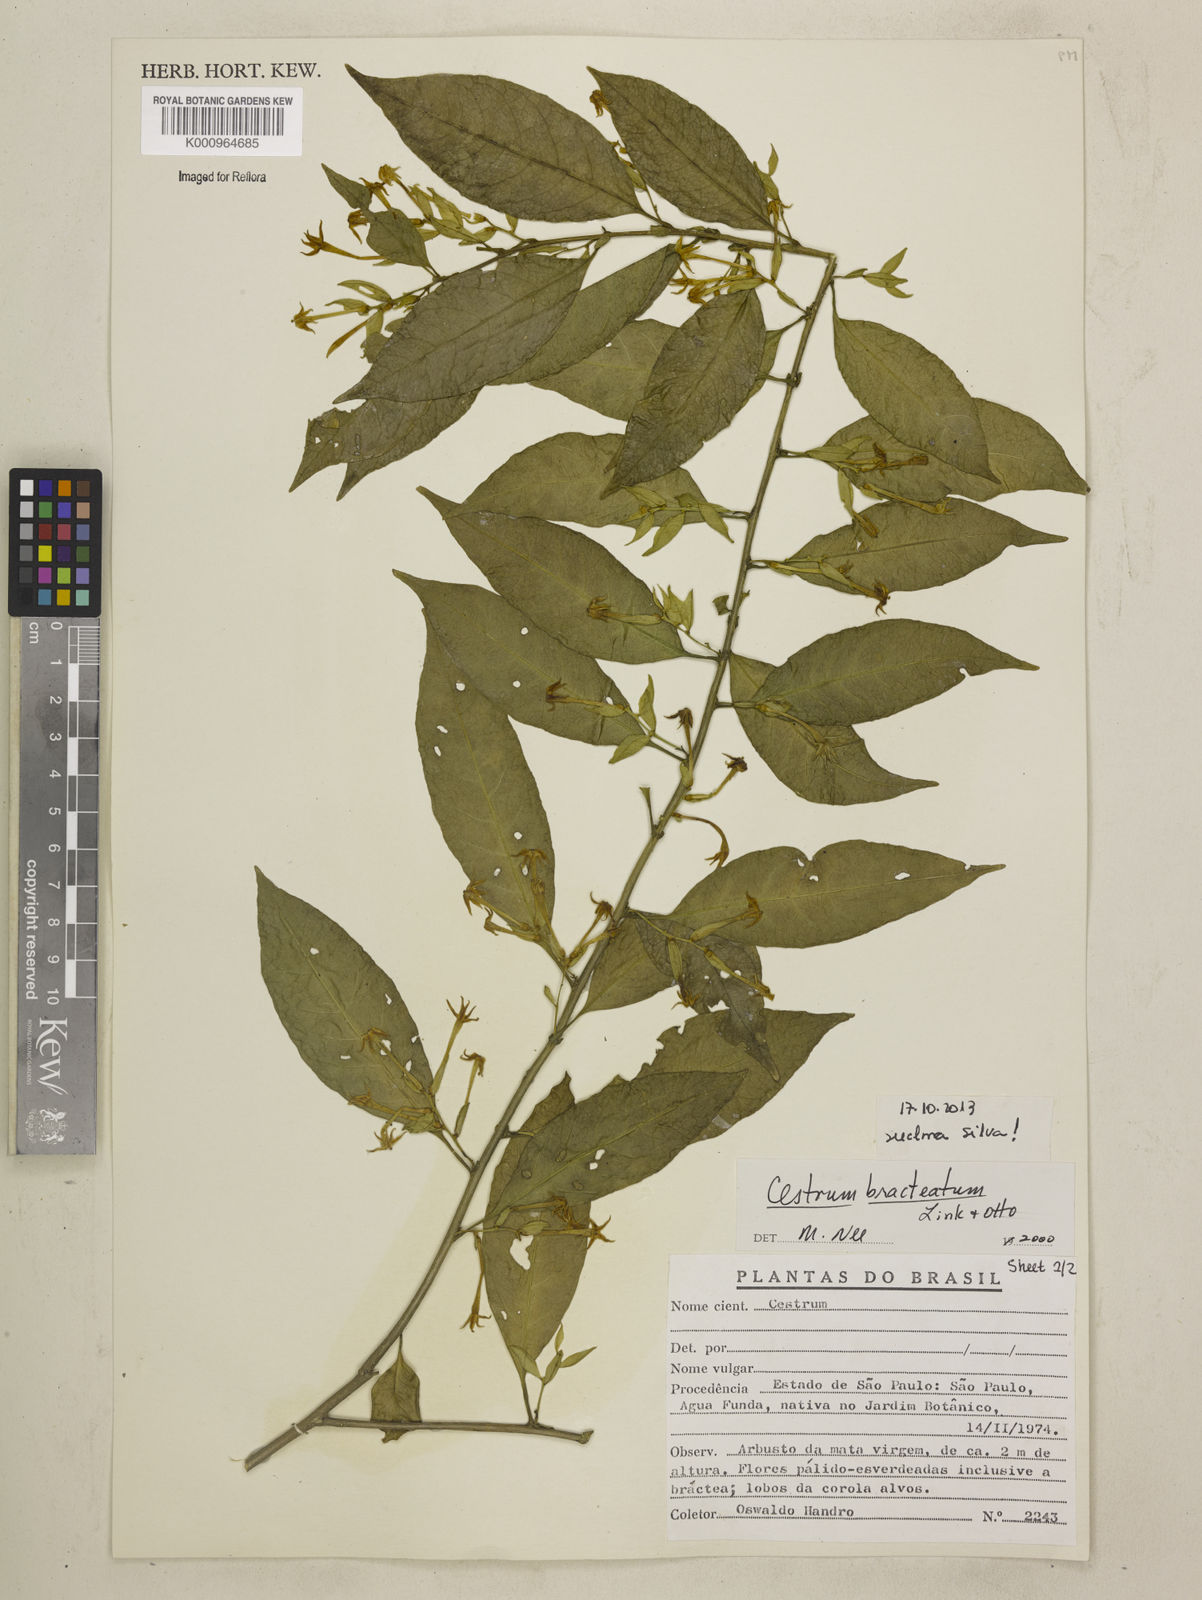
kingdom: Plantae
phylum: Tracheophyta
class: Magnoliopsida
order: Solanales
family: Solanaceae
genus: Cestrum
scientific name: Cestrum bracteatum
